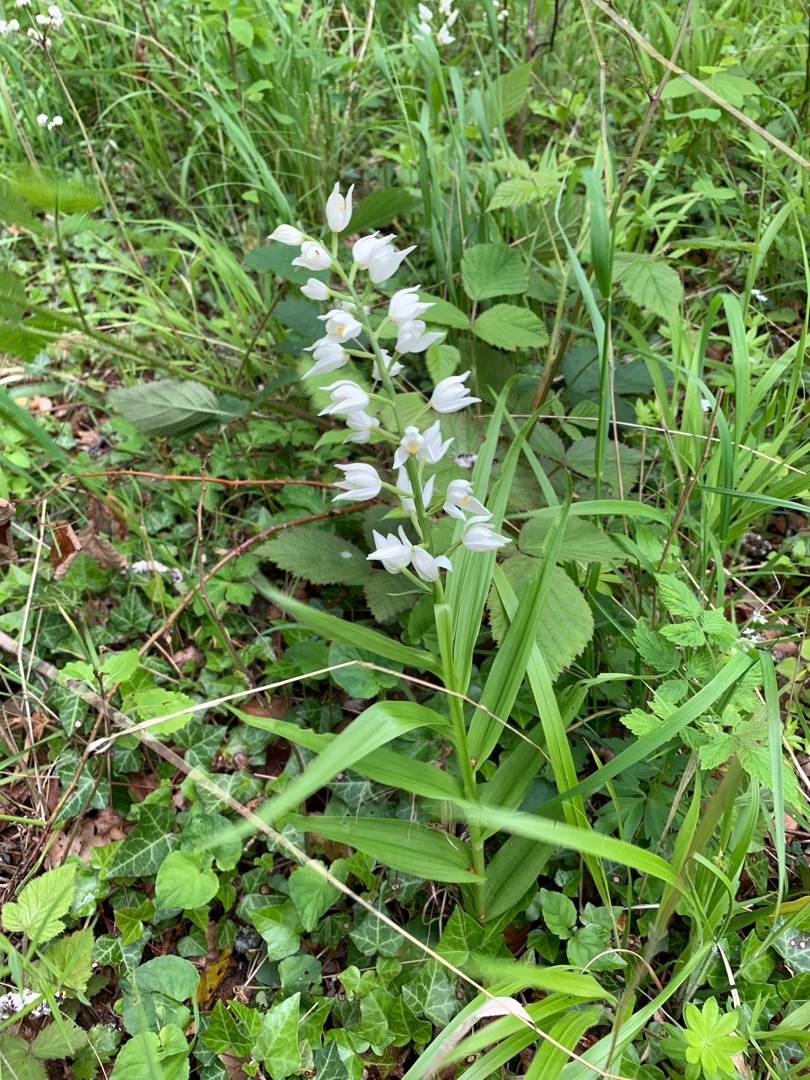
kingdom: Plantae
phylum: Tracheophyta
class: Liliopsida
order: Asparagales
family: Orchidaceae
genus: Cephalanthera
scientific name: Cephalanthera longifolia
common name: Sværd-skovlilje
